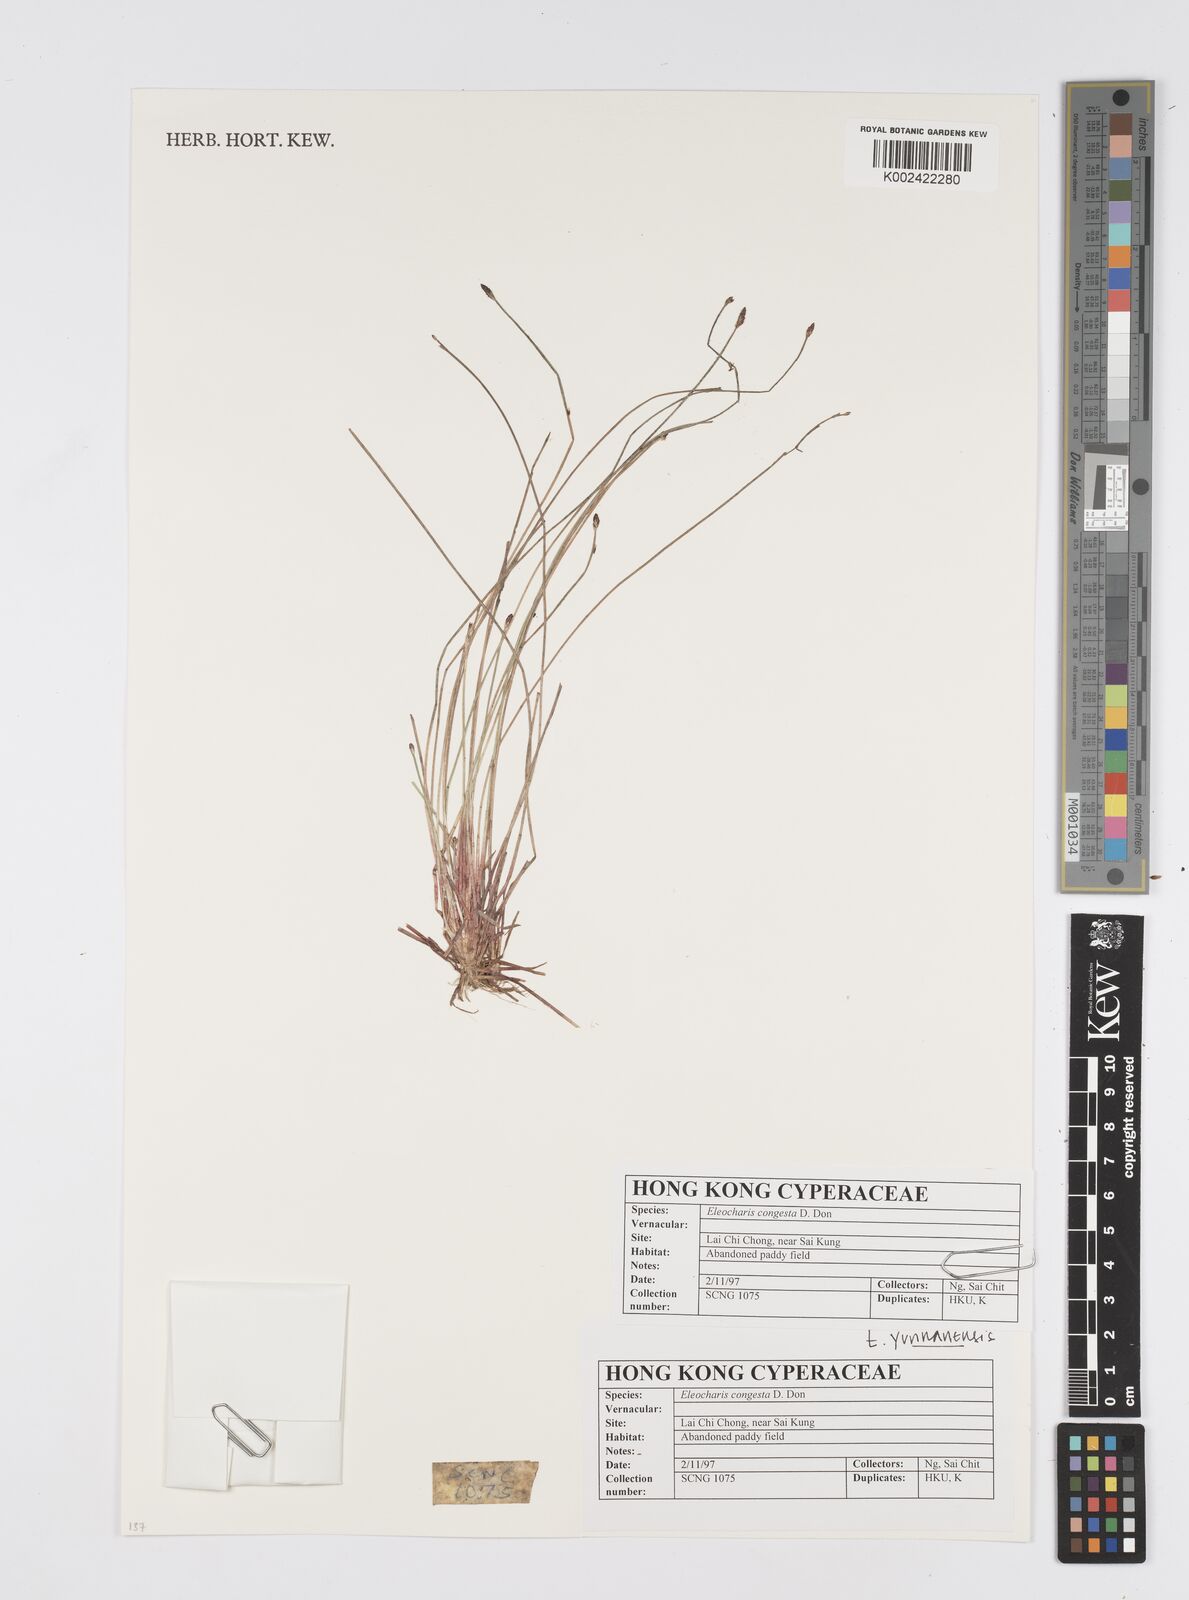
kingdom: Plantae
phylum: Tracheophyta
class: Liliopsida
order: Poales
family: Cyperaceae
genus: Eleocharis
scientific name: Eleocharis congesta
